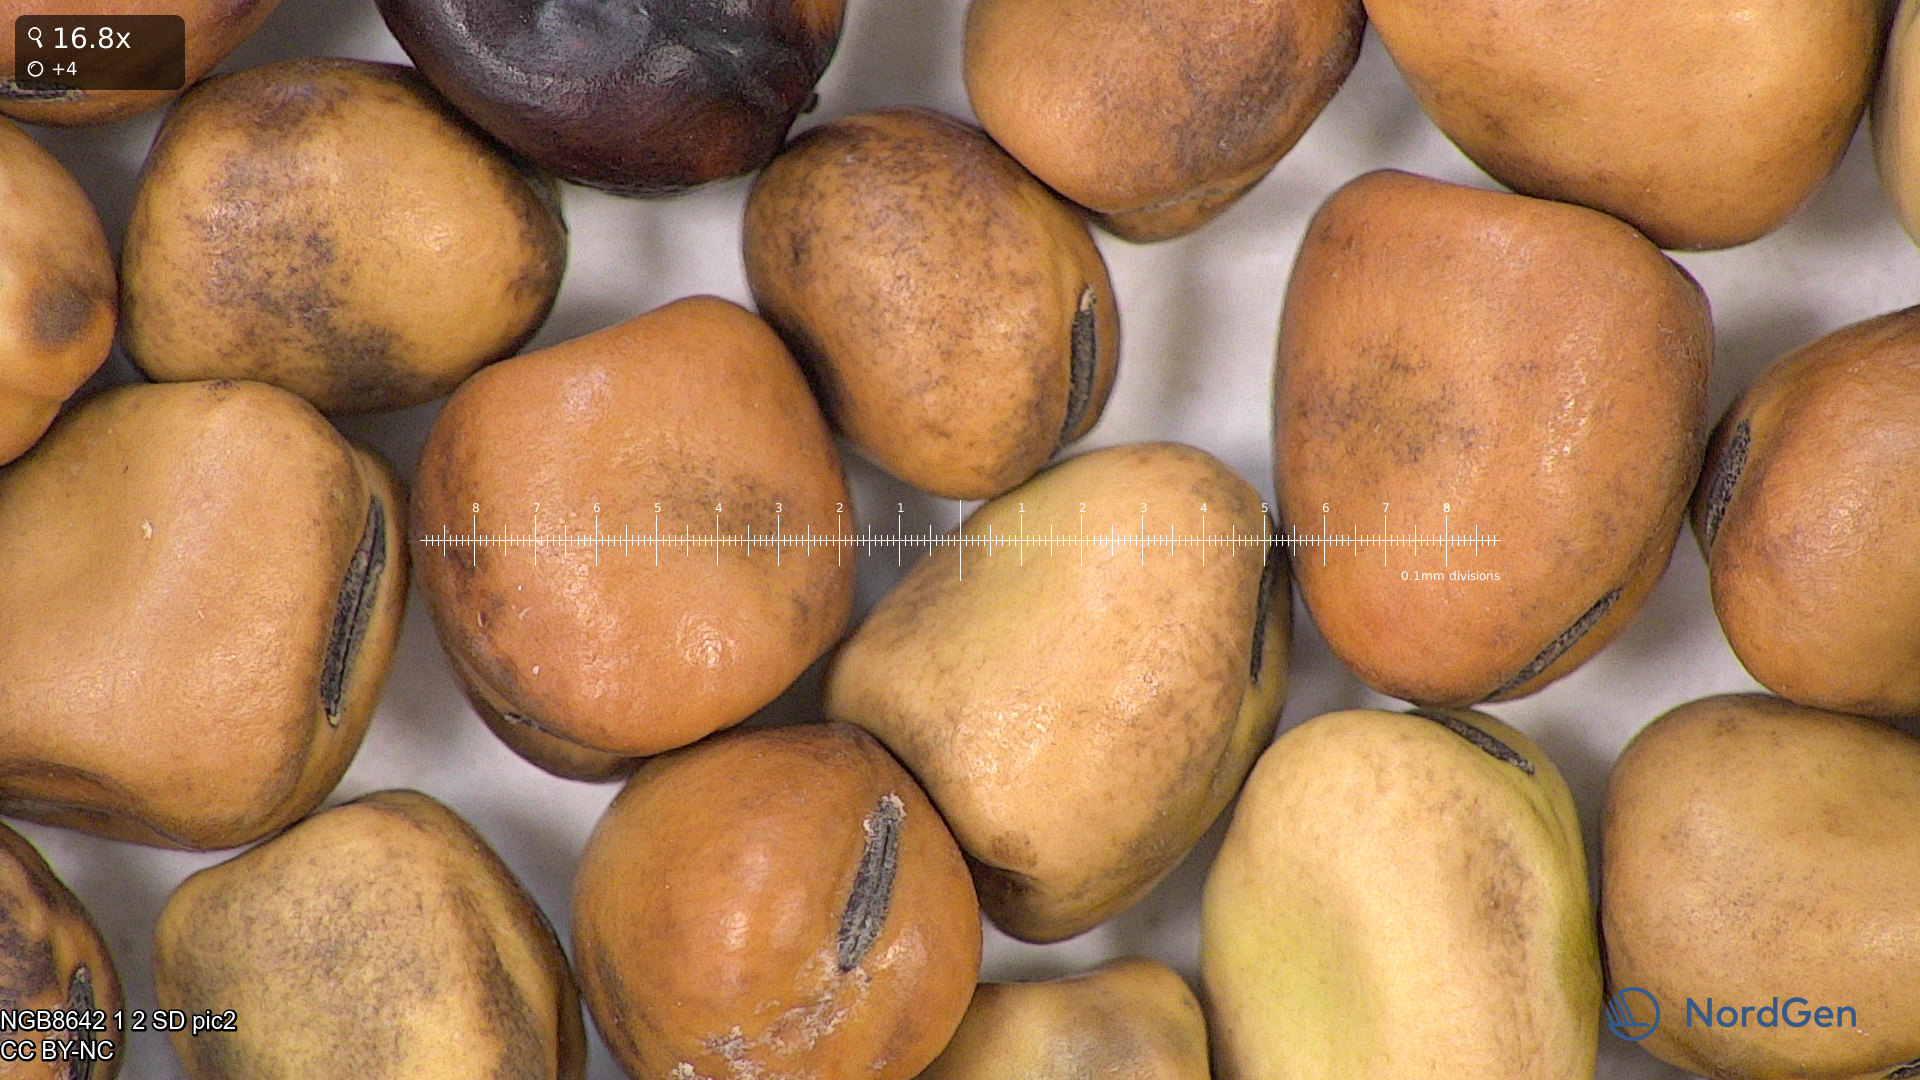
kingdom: Plantae
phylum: Tracheophyta
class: Magnoliopsida
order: Fabales
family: Fabaceae
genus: Vicia
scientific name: Vicia faba
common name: Broad bean
